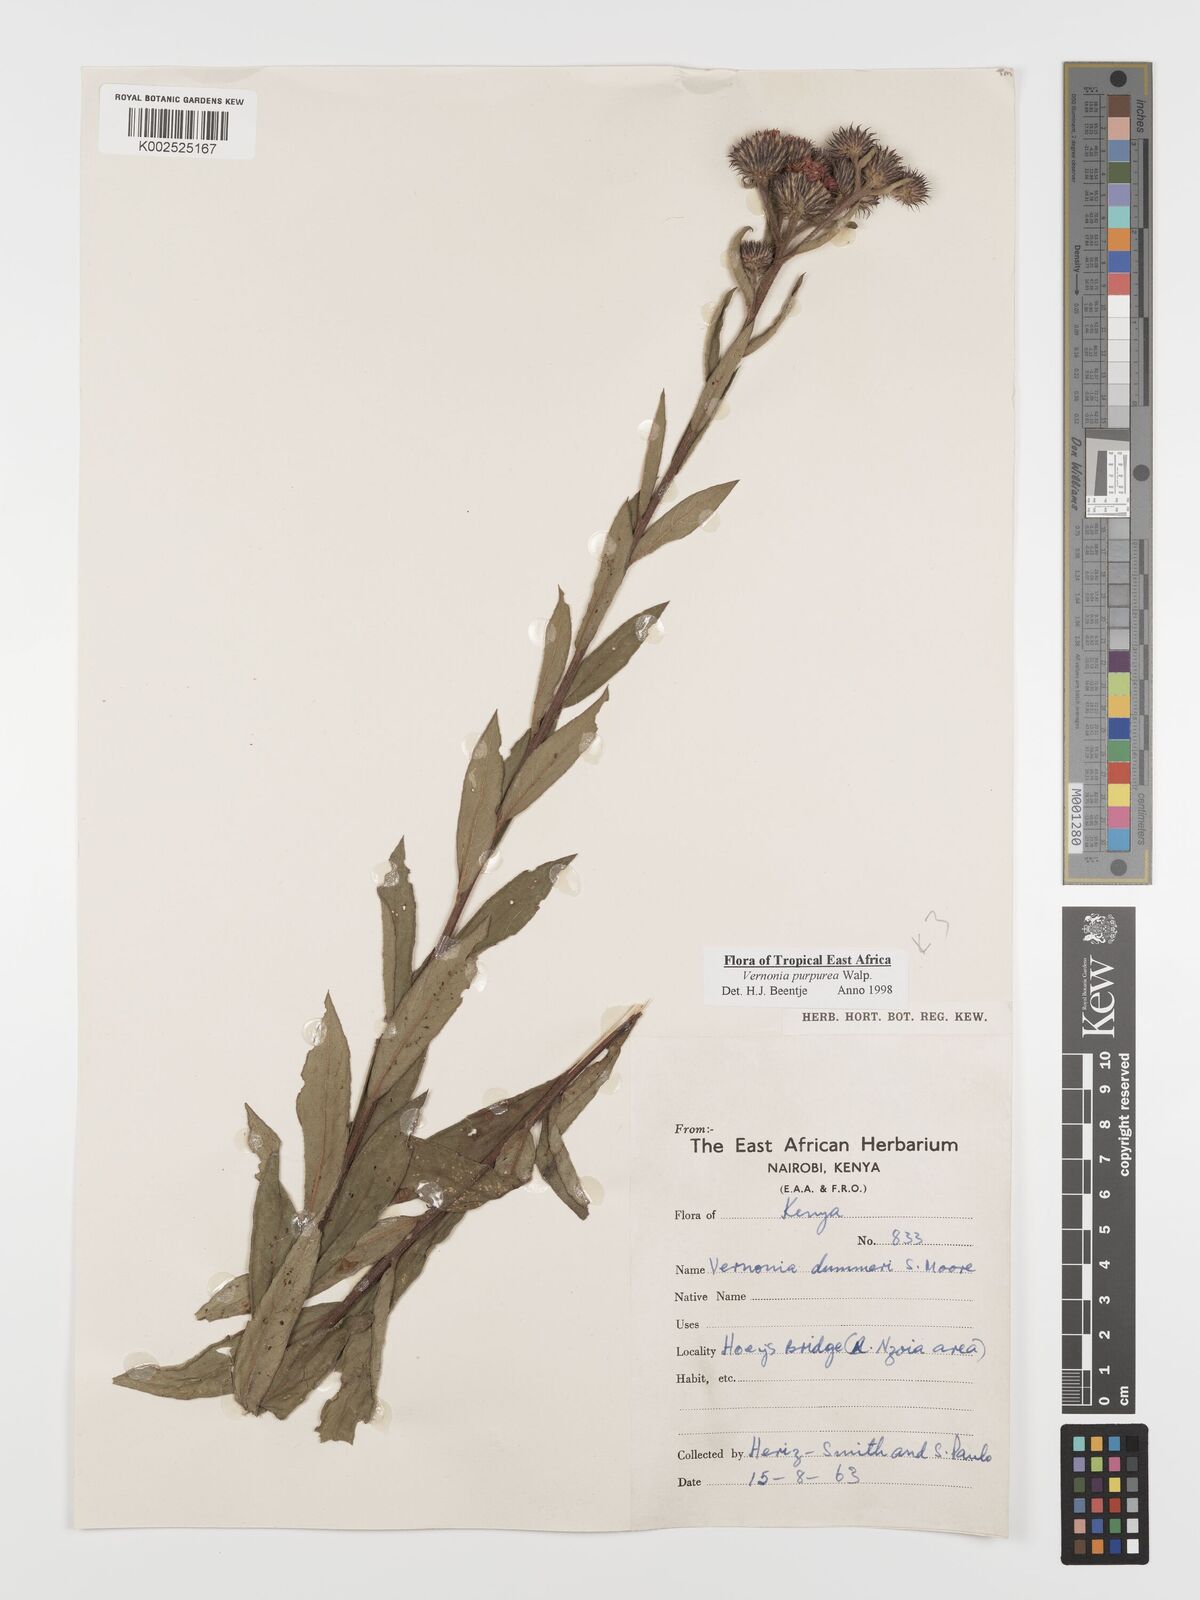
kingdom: Plantae
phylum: Tracheophyta
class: Magnoliopsida
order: Asterales
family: Asteraceae
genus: Nothovernonia
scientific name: Nothovernonia purpurea
